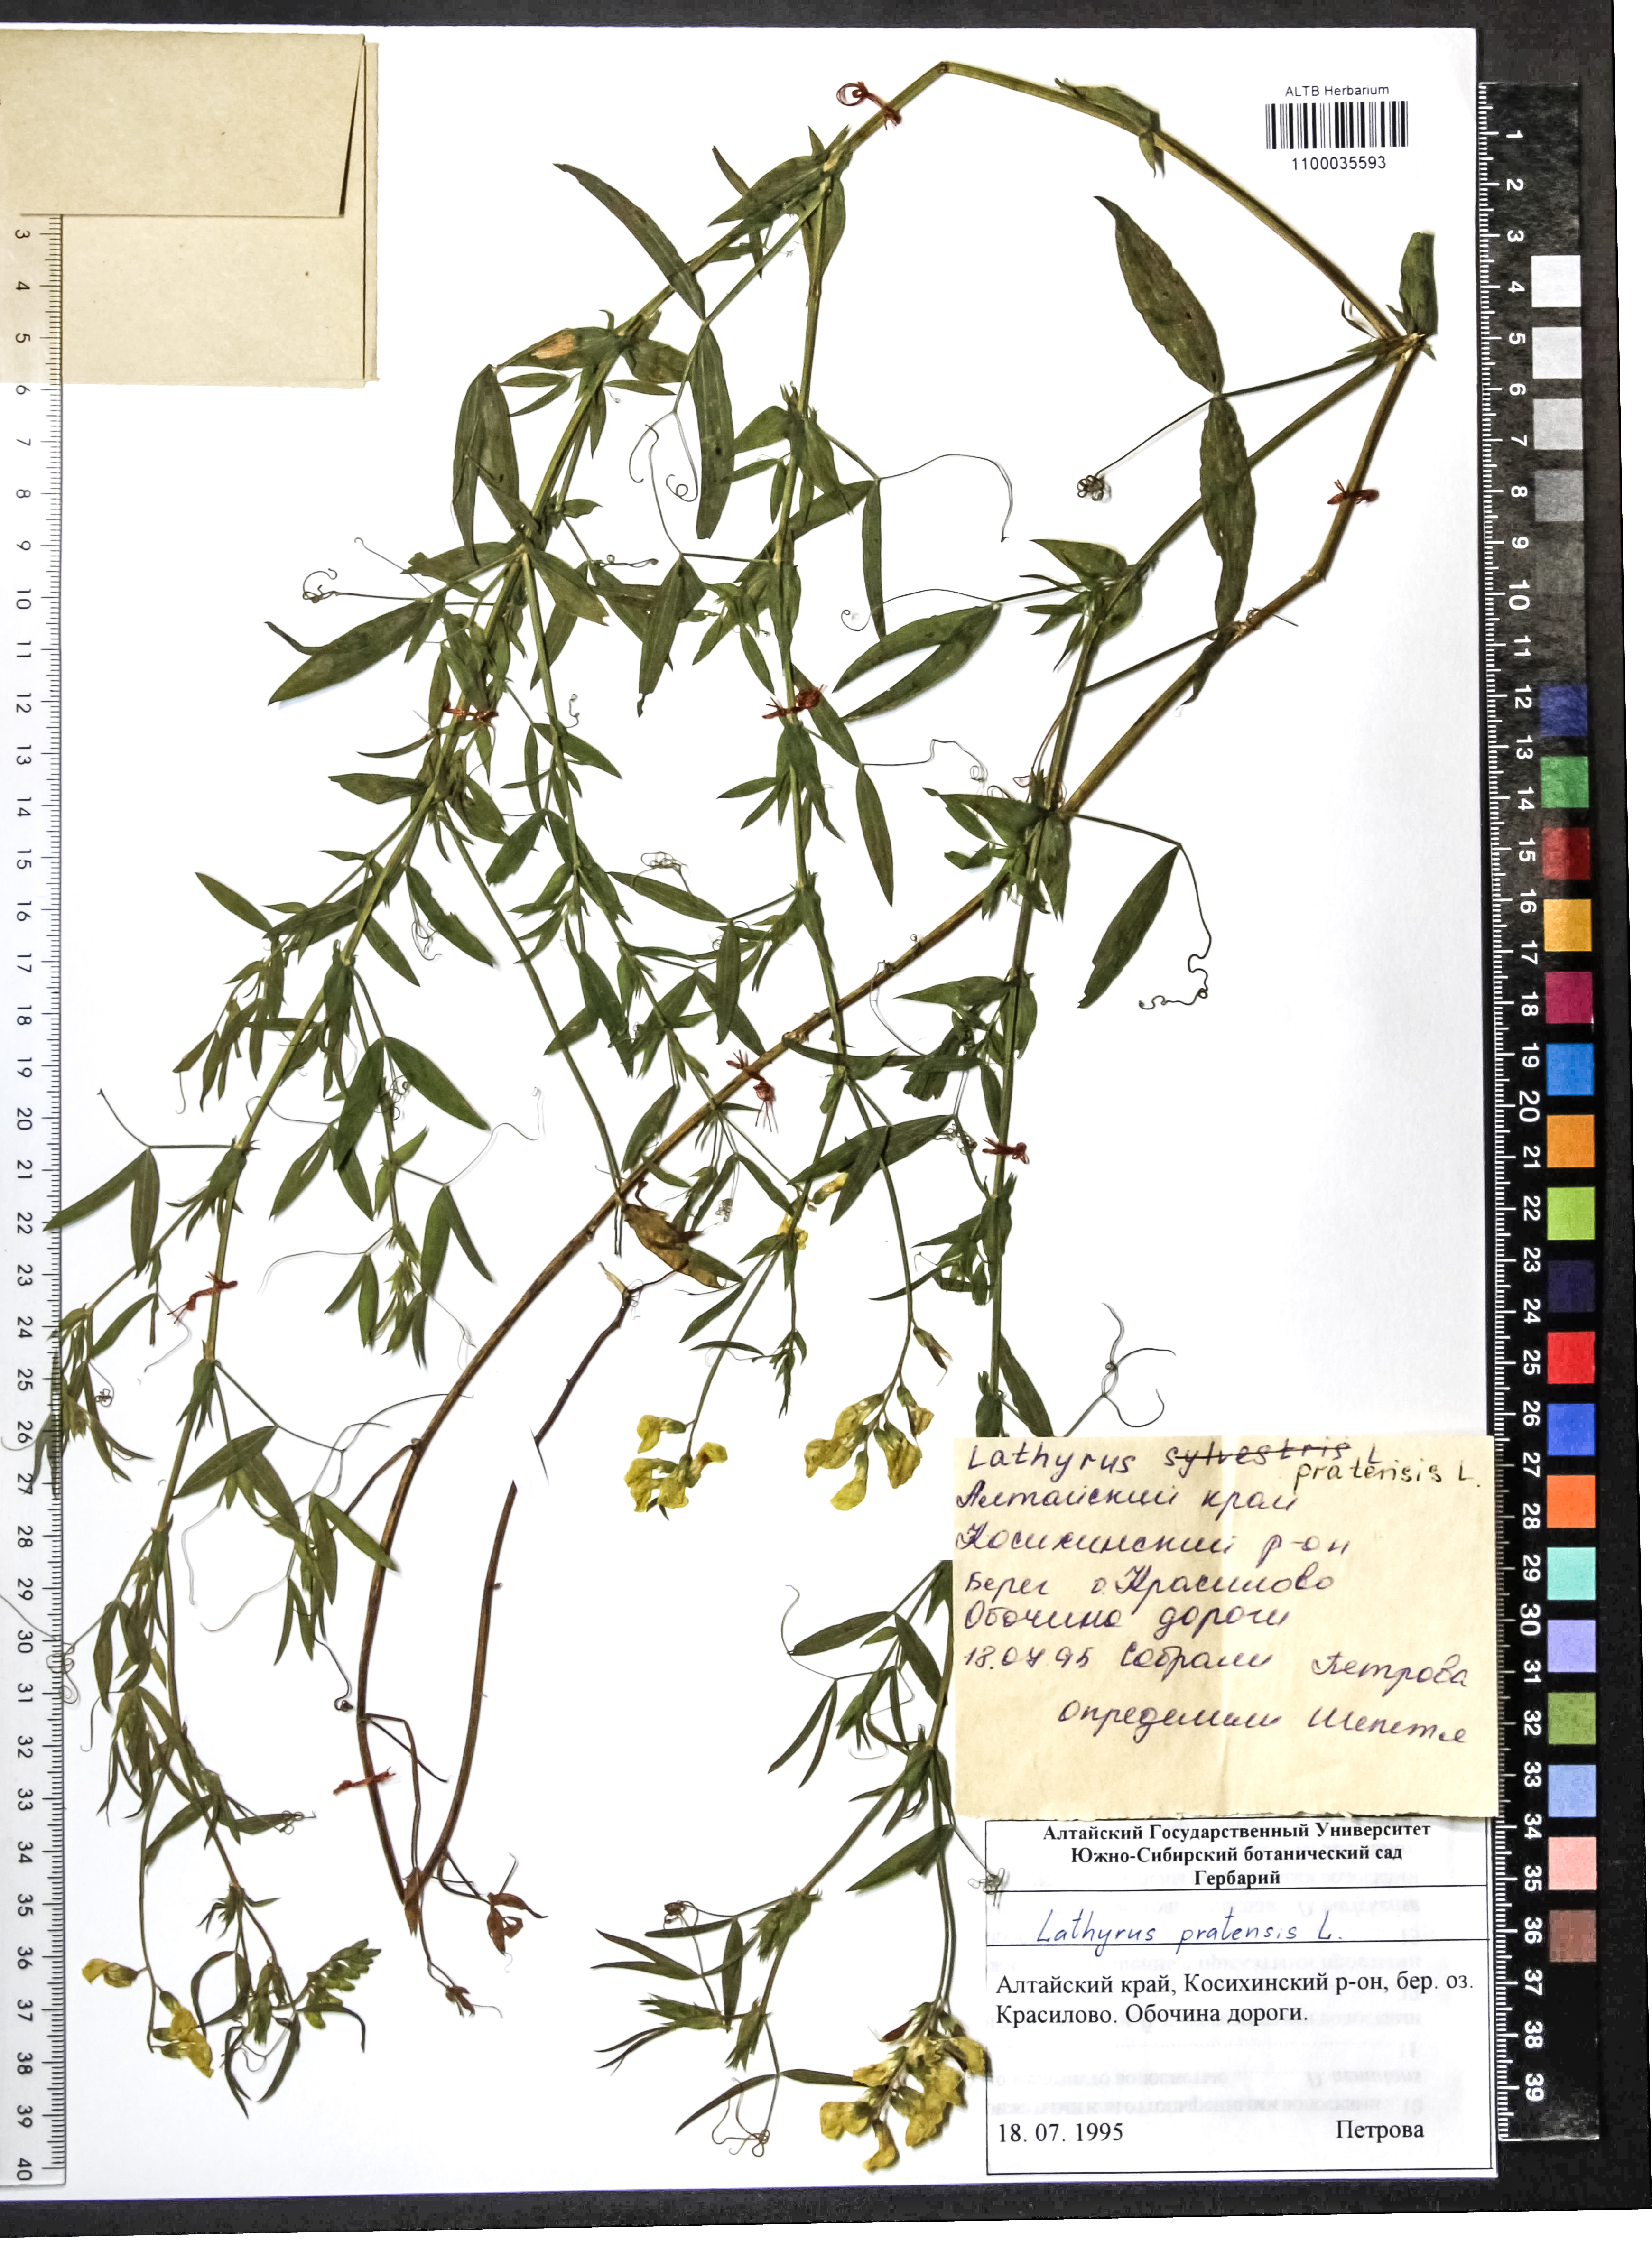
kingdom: Plantae
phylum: Tracheophyta
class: Magnoliopsida
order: Fabales
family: Fabaceae
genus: Lathyrus
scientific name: Lathyrus pratensis
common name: Meadow vetchling
